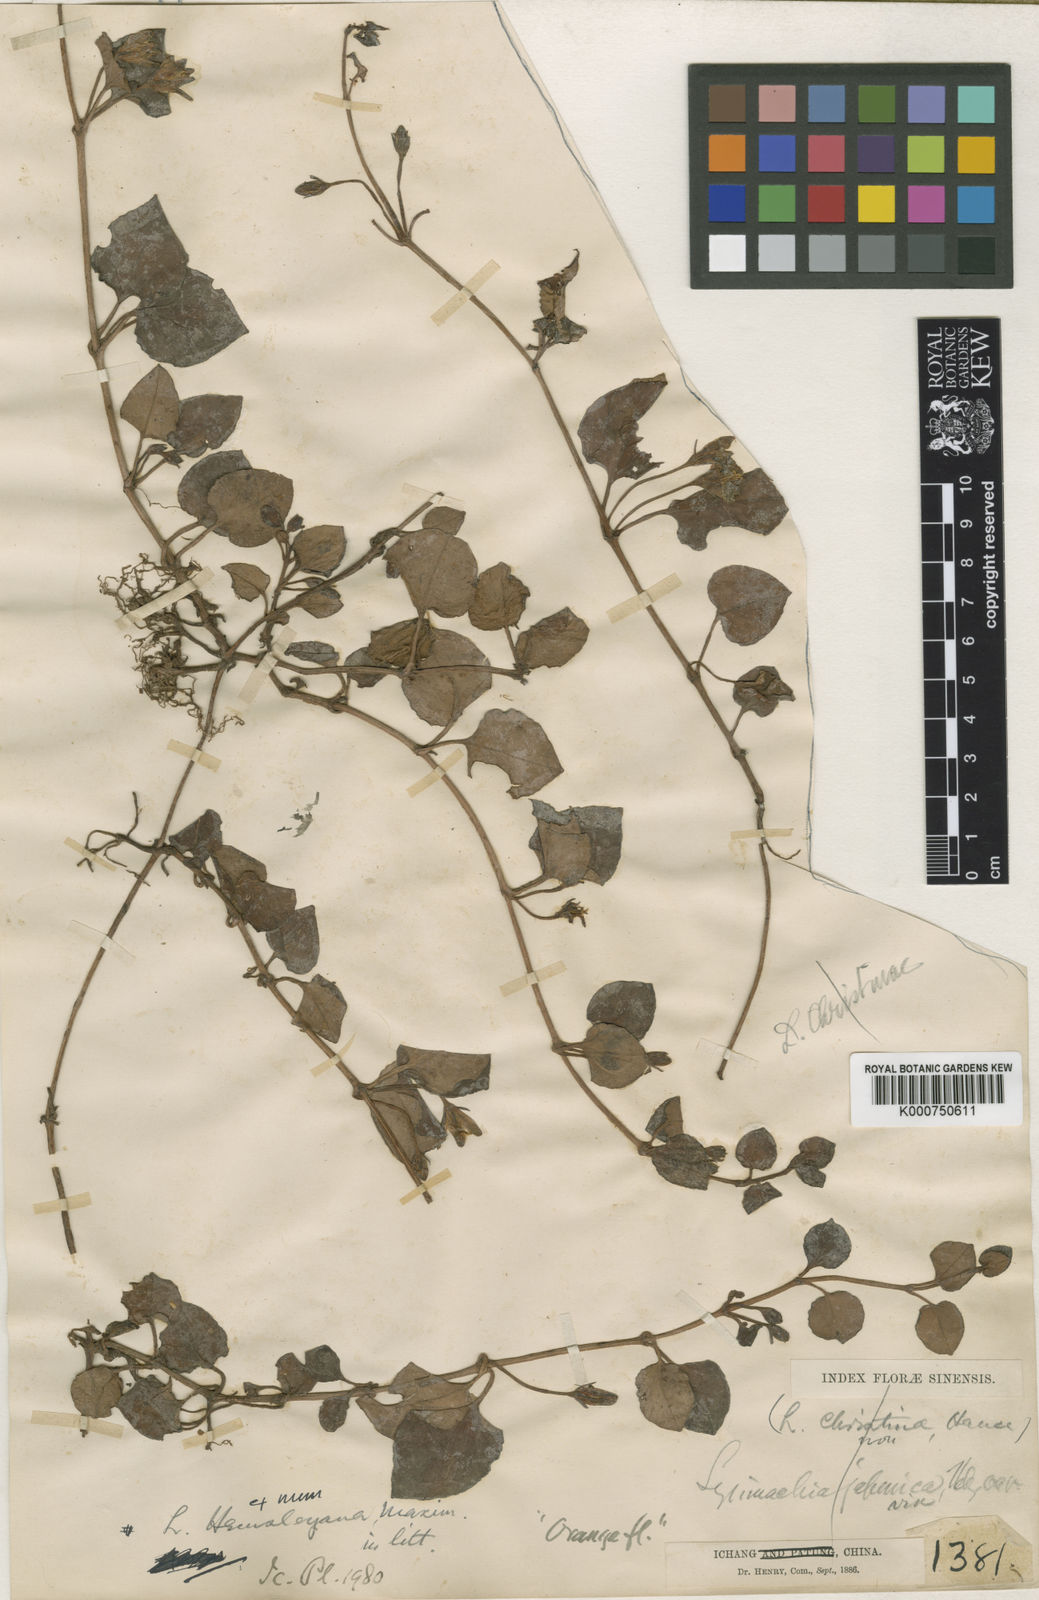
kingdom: Plantae
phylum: Tracheophyta
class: Magnoliopsida
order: Ericales
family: Primulaceae
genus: Lysimachia
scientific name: Lysimachia hemsleyana
